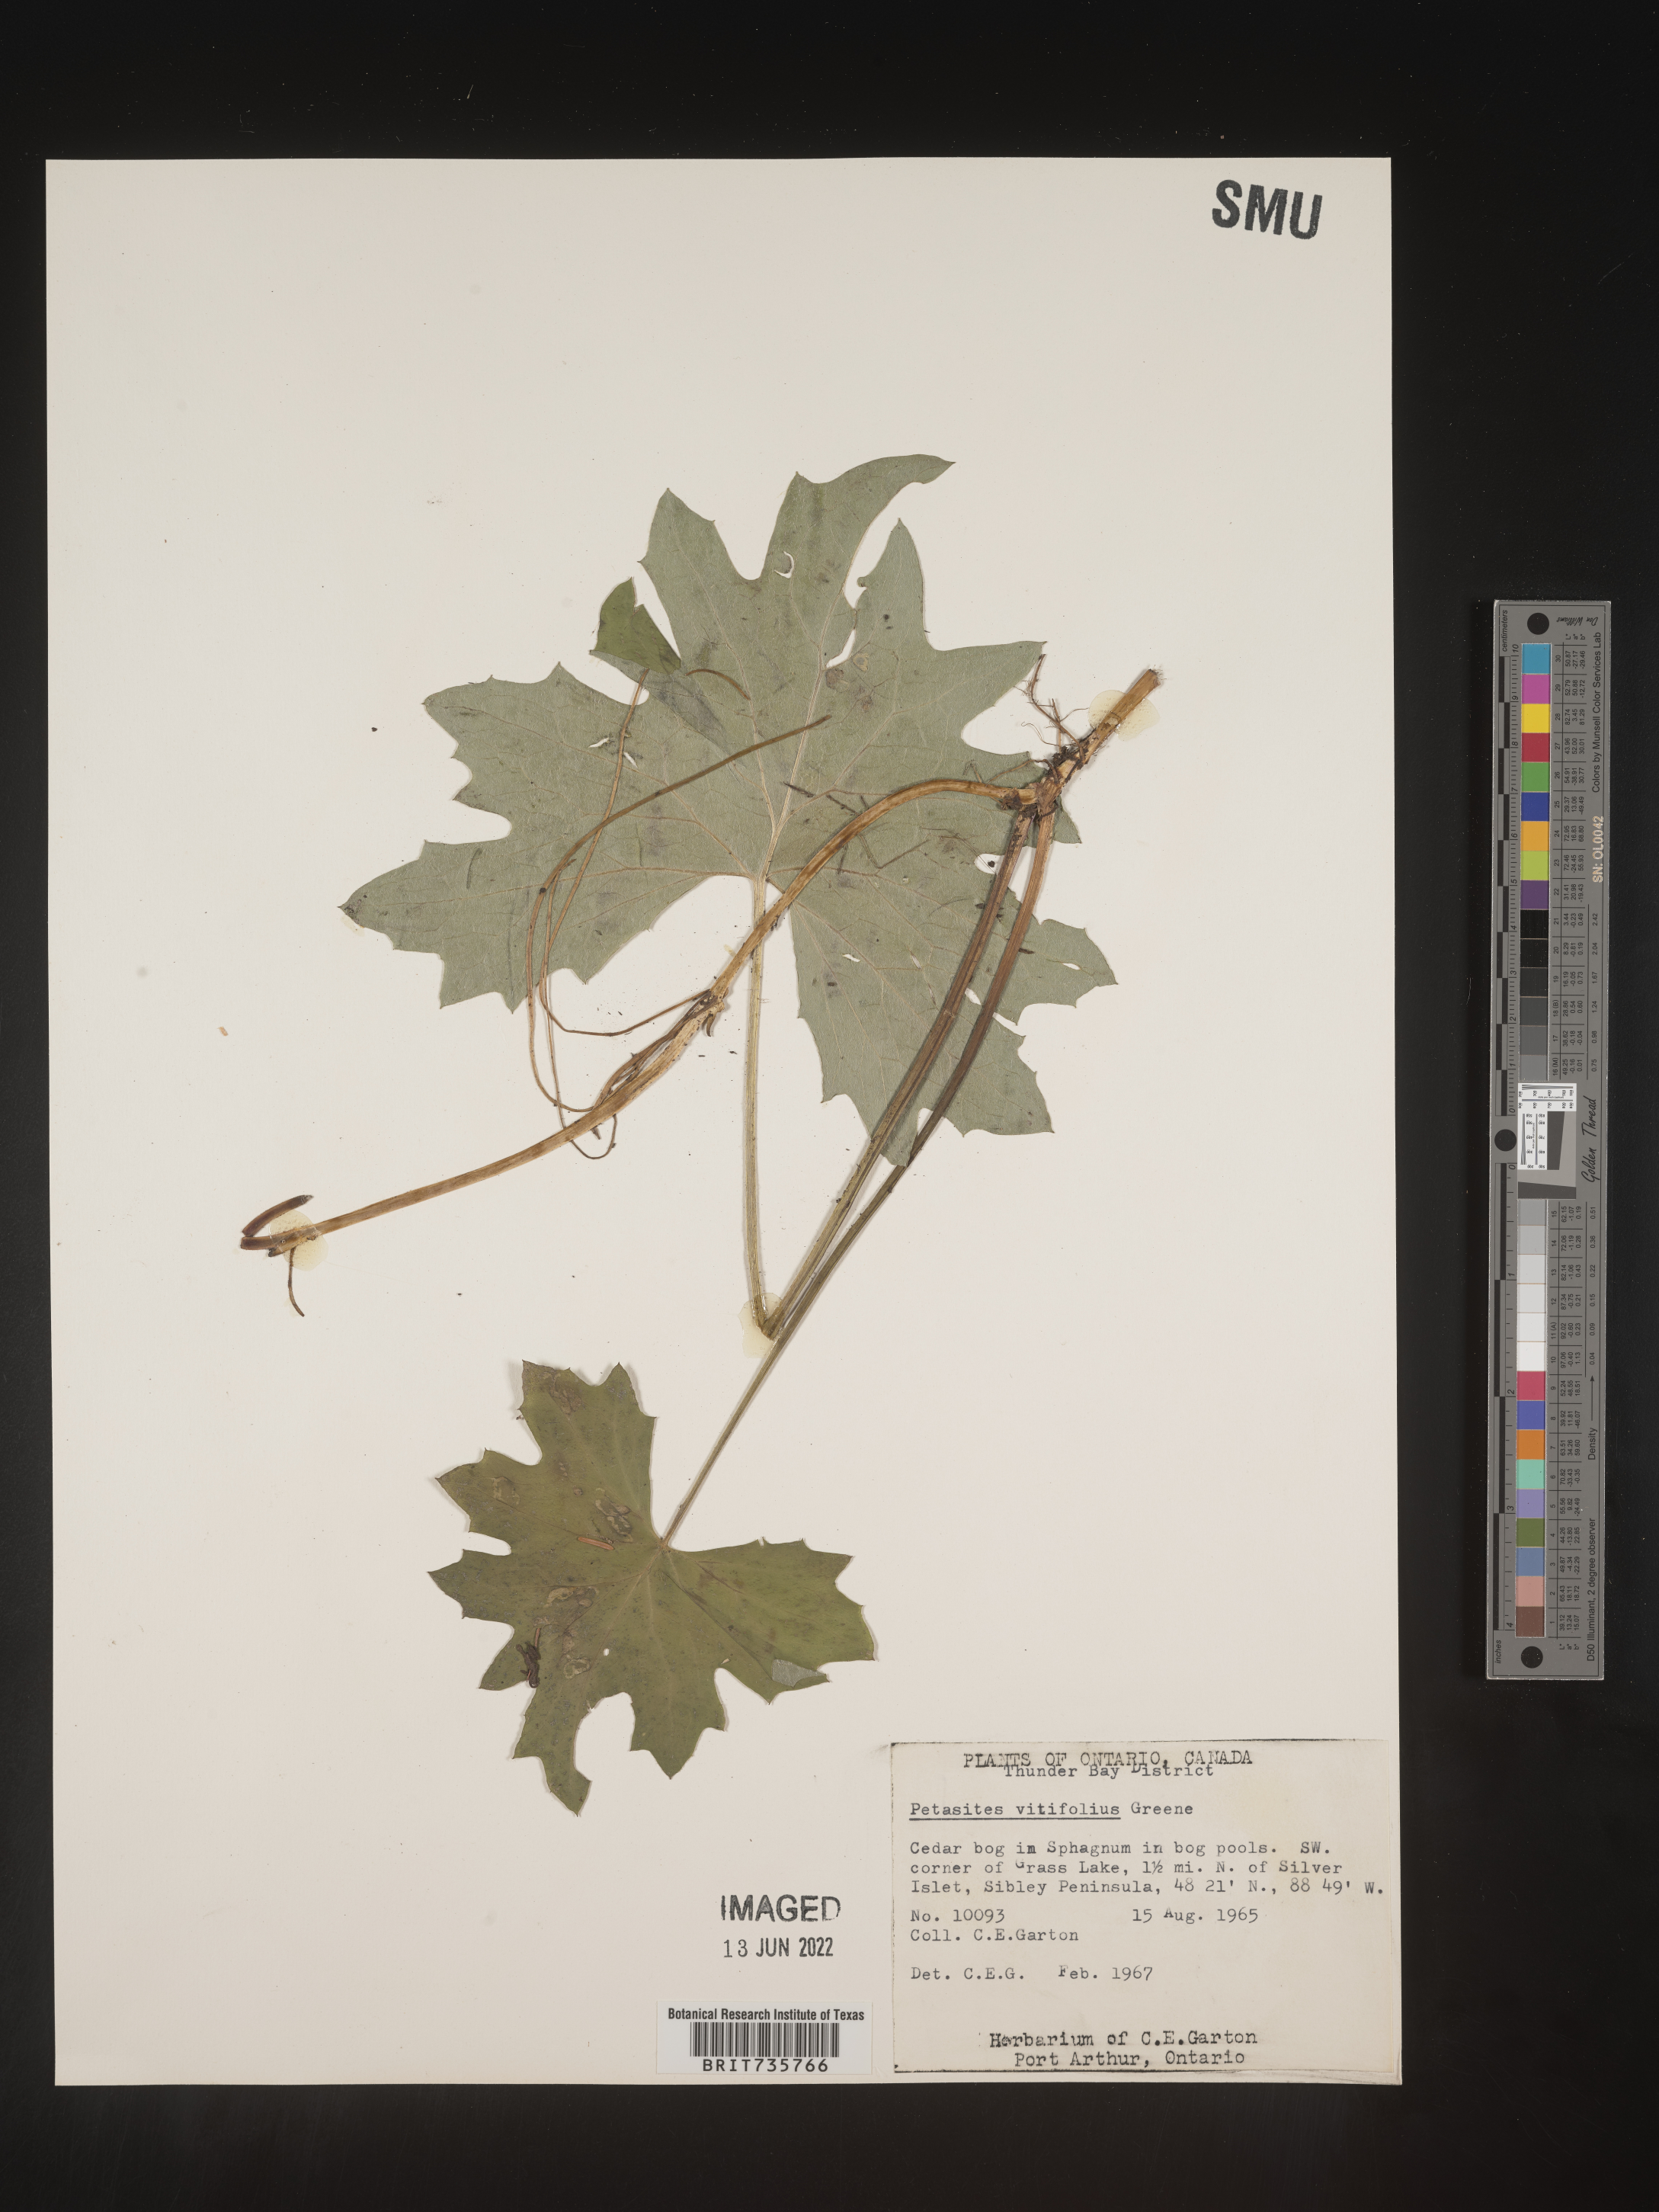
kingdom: Plantae
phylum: Tracheophyta
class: Magnoliopsida
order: Asterales
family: Asteraceae
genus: Petasites
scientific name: Petasites
